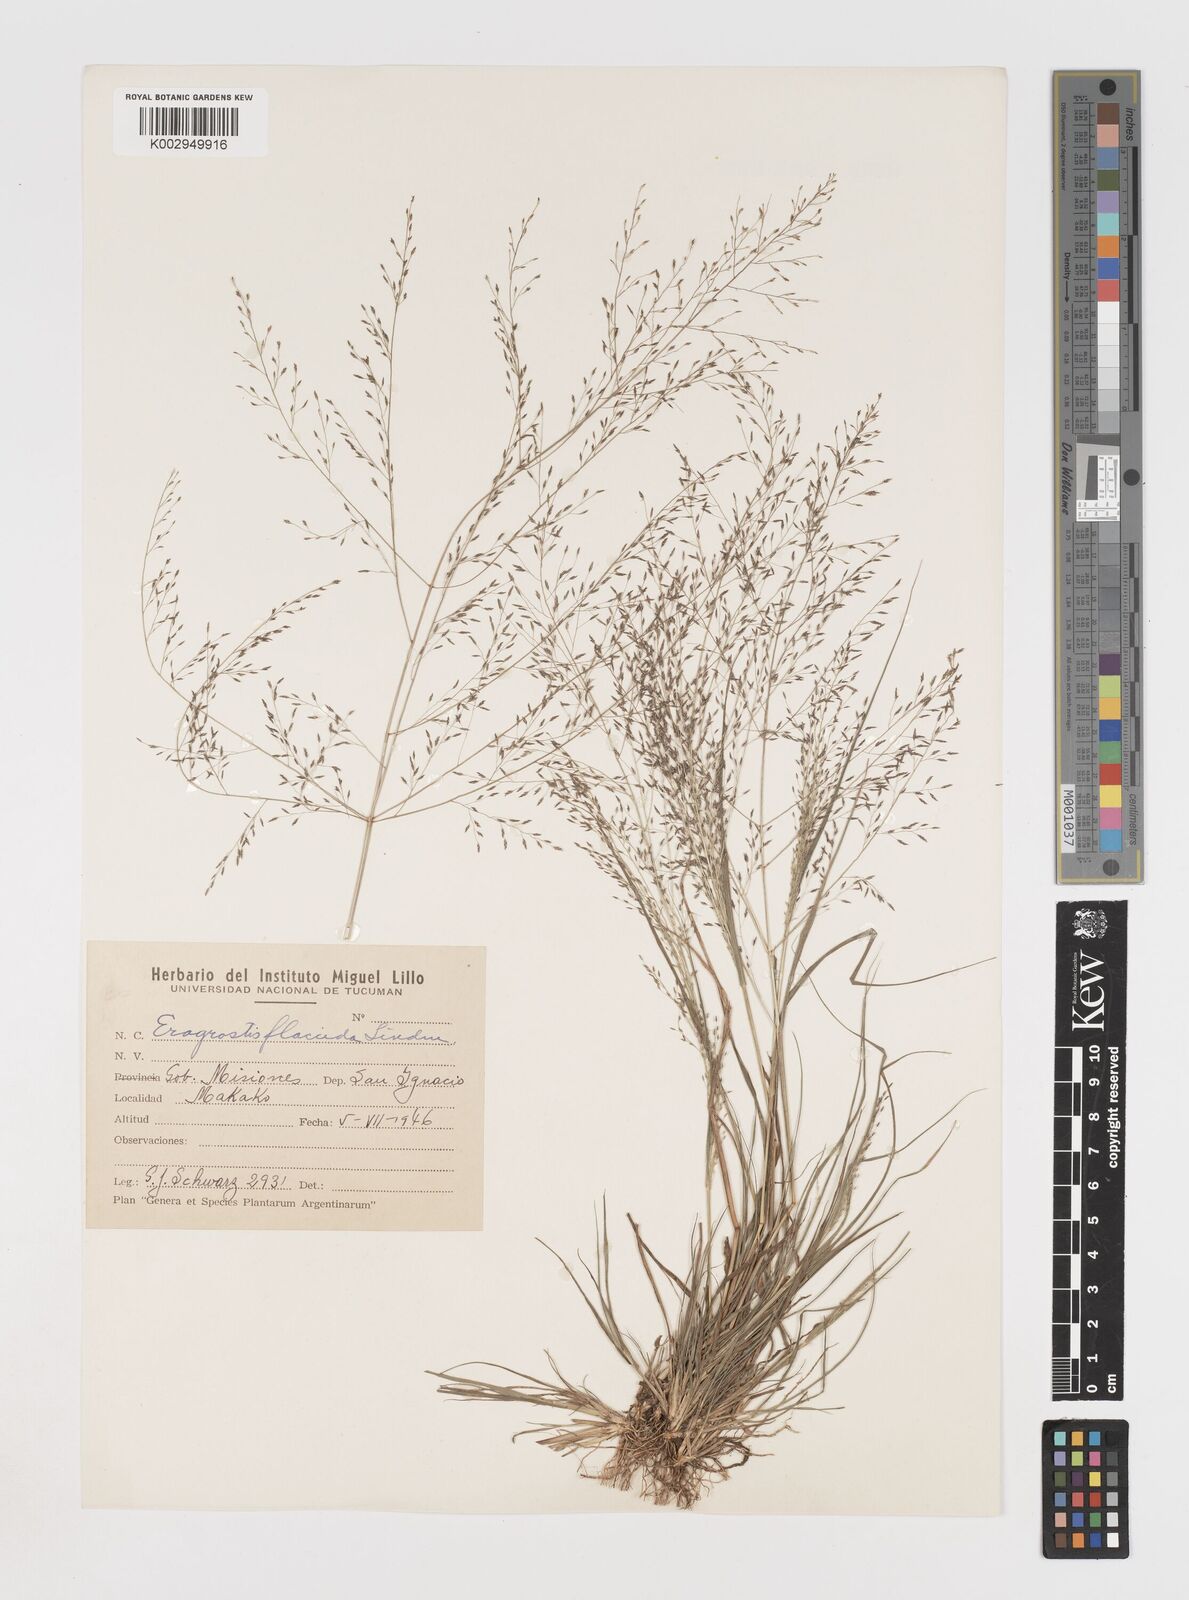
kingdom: Plantae
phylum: Tracheophyta
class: Liliopsida
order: Poales
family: Poaceae
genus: Eragrostis
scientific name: Eragrostis lugens
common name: Mourning love grass
